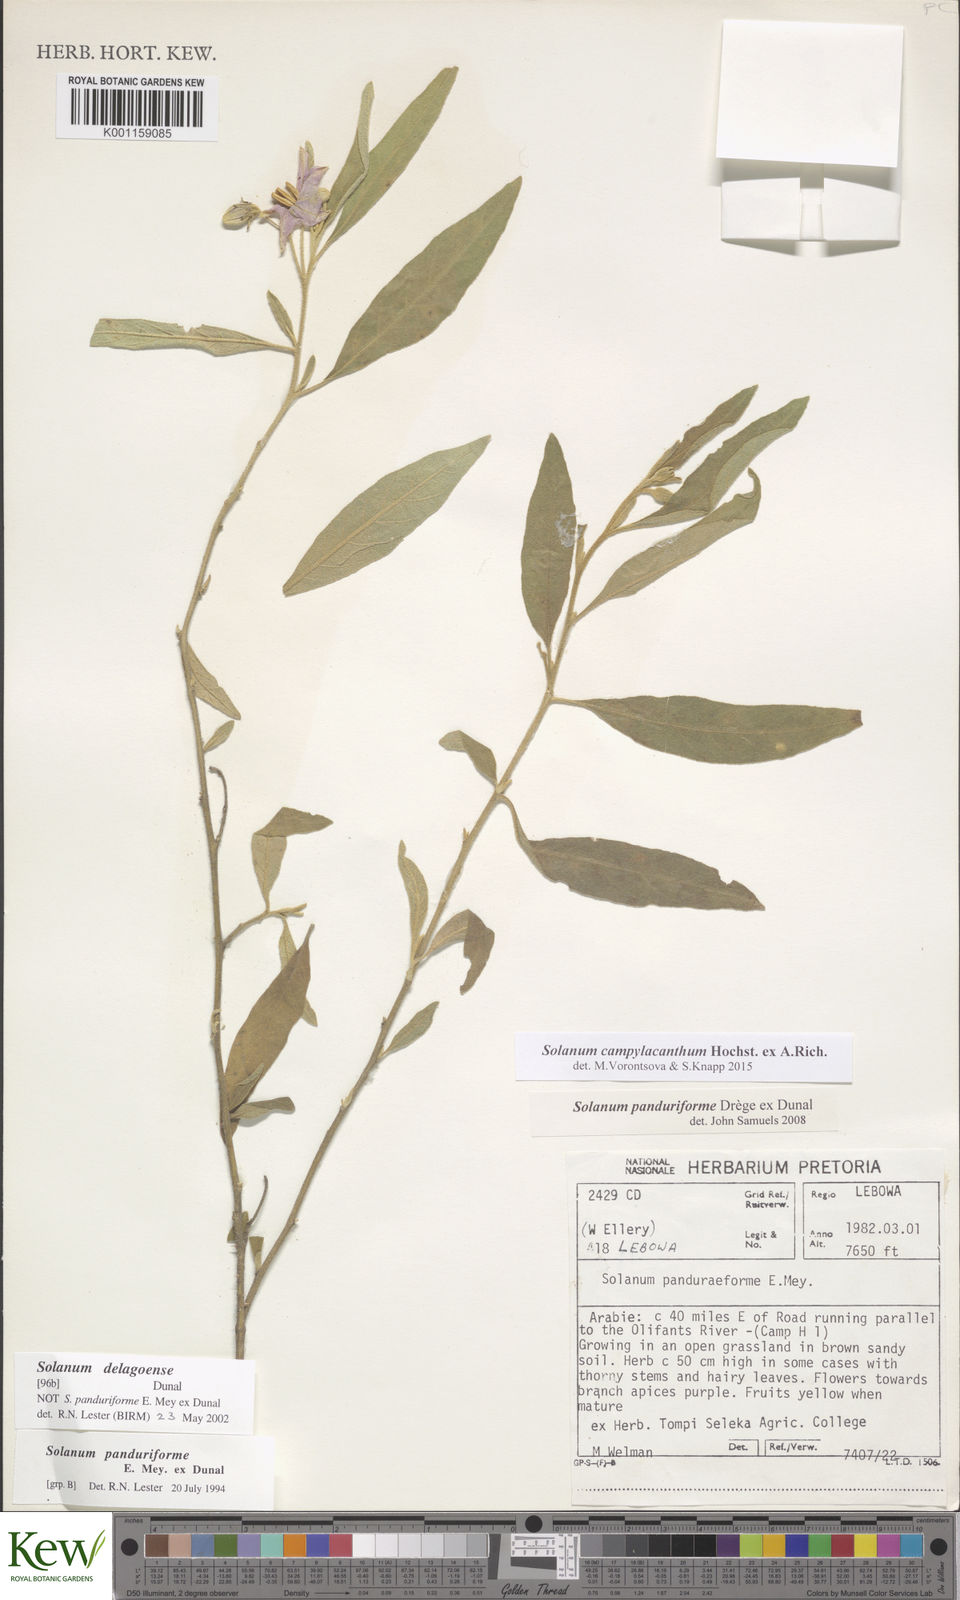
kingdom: Plantae
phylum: Tracheophyta
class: Magnoliopsida
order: Solanales
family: Solanaceae
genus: Solanum
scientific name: Solanum campylacanthum
